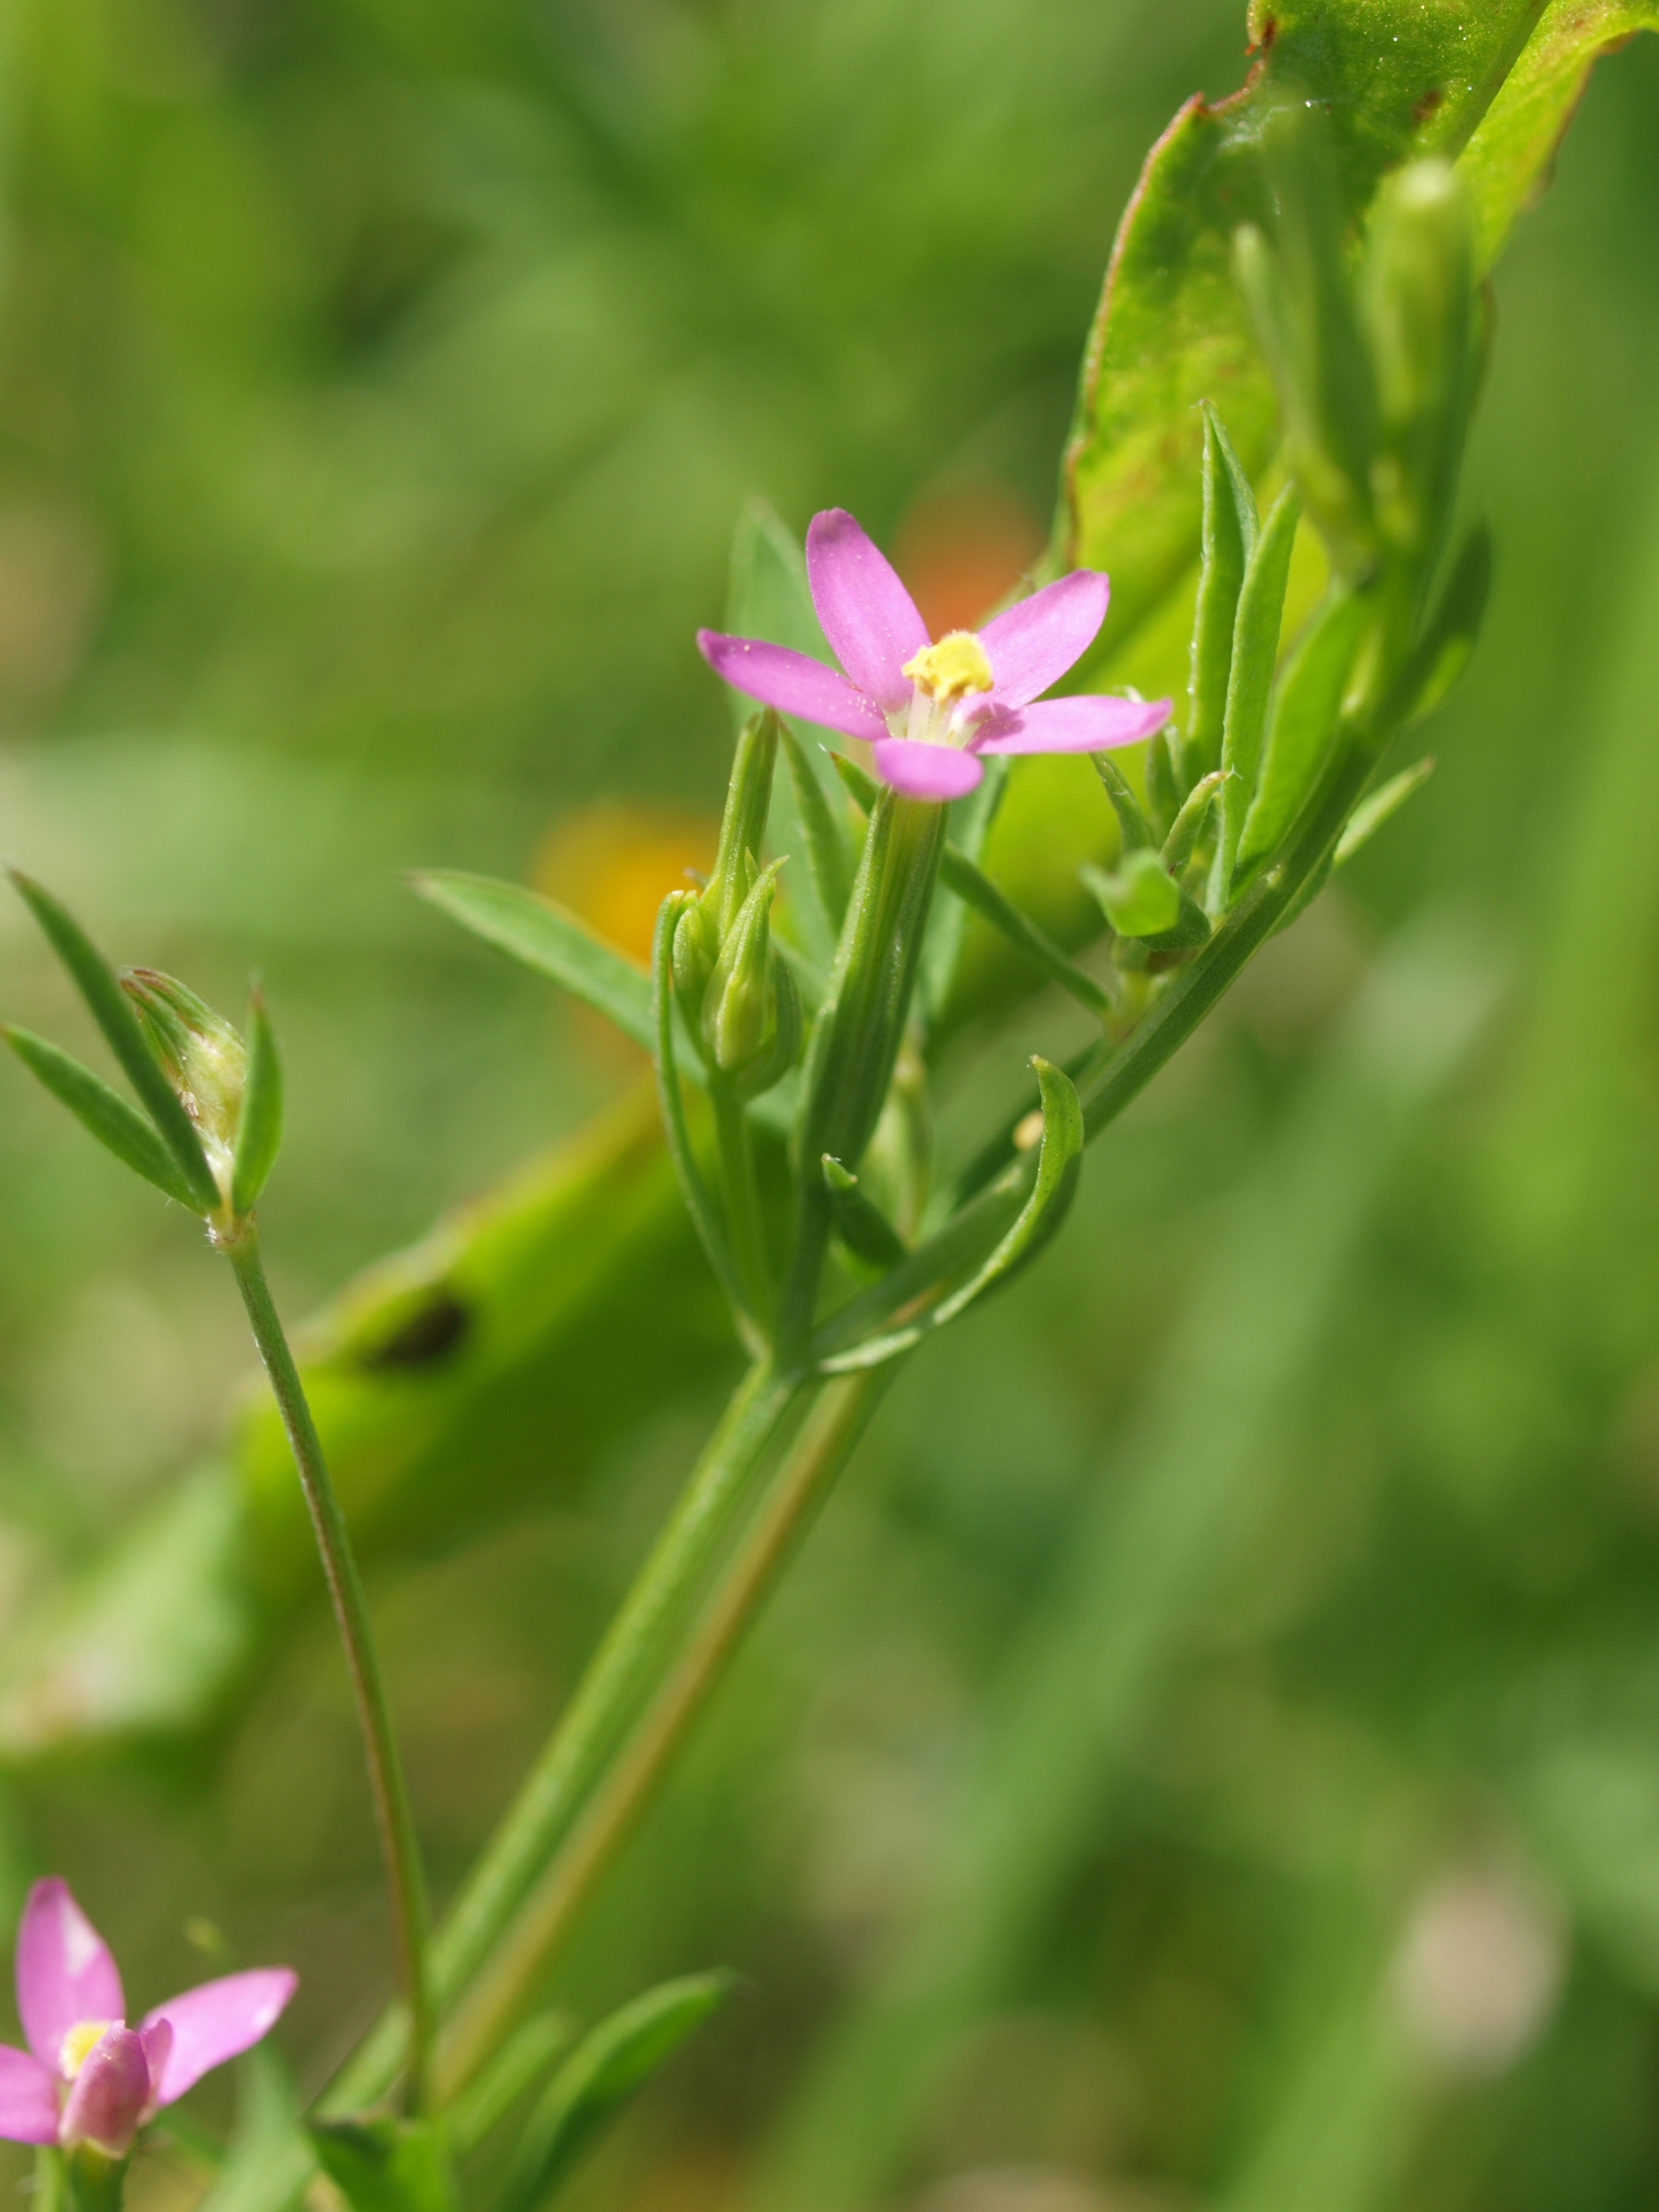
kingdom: Plantae
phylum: Tracheophyta
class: Magnoliopsida
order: Gentianales
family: Gentianaceae
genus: Centaurium
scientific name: Centaurium pulchellum
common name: Liden tusindgylden
